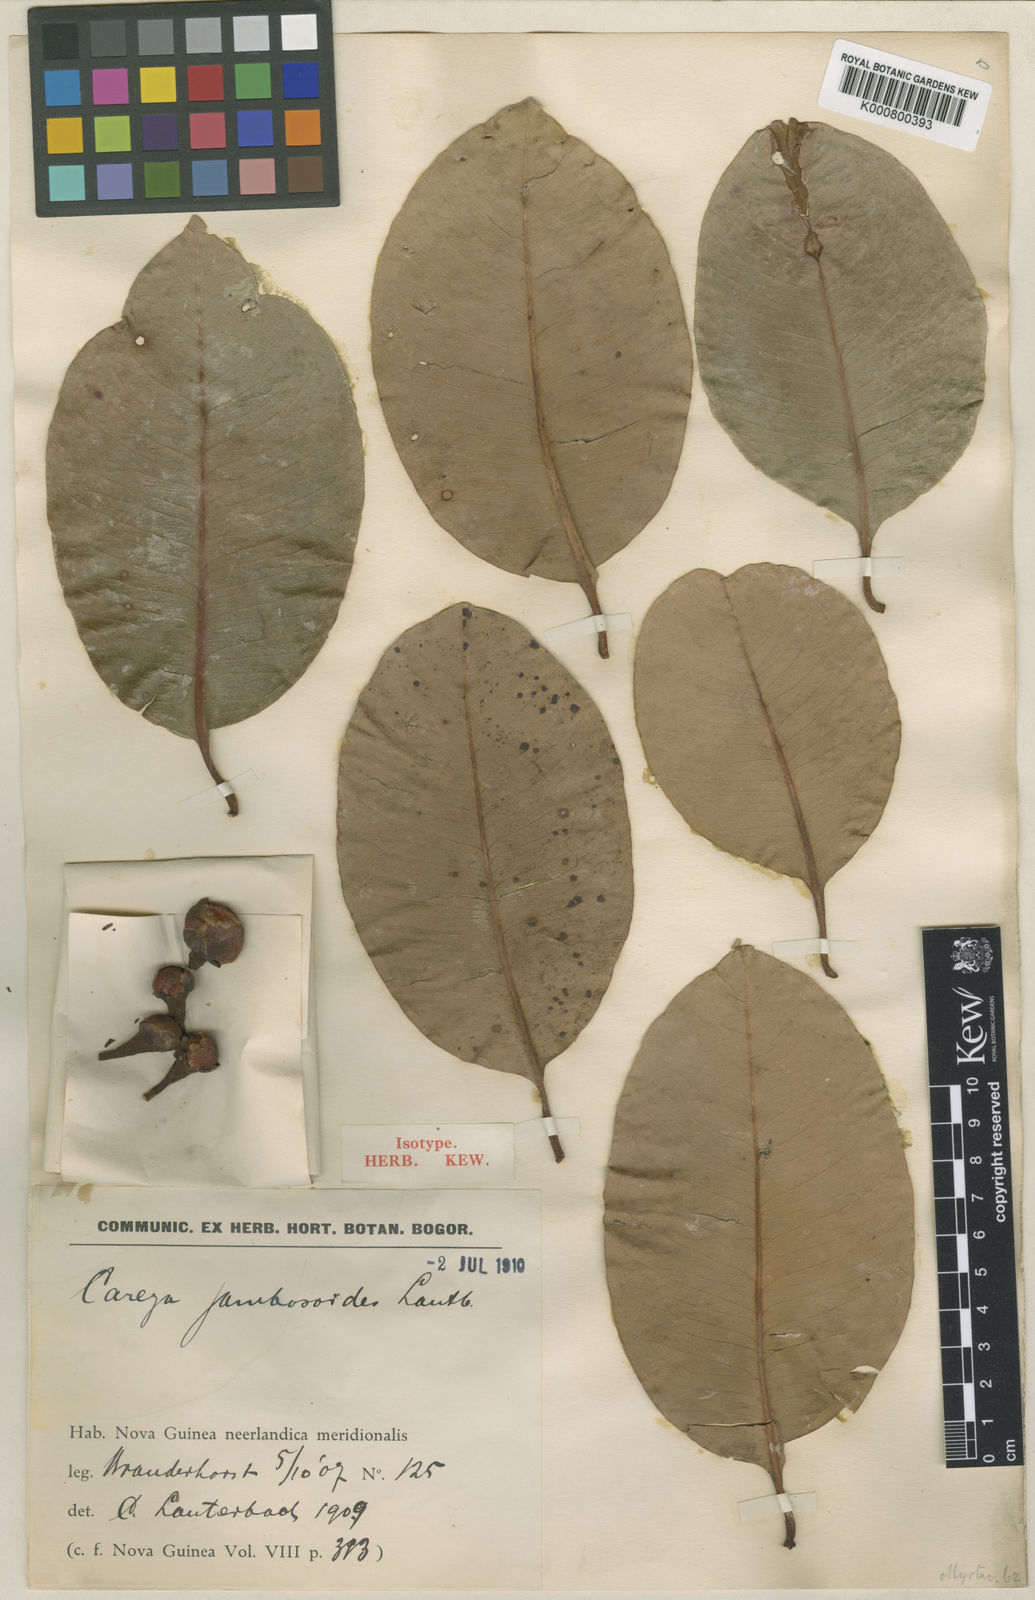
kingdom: Plantae
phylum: Tracheophyta
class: Magnoliopsida
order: Myrtales
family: Myrtaceae
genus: Syzygium
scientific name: Syzygium suborbiculare
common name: Red bush apple
